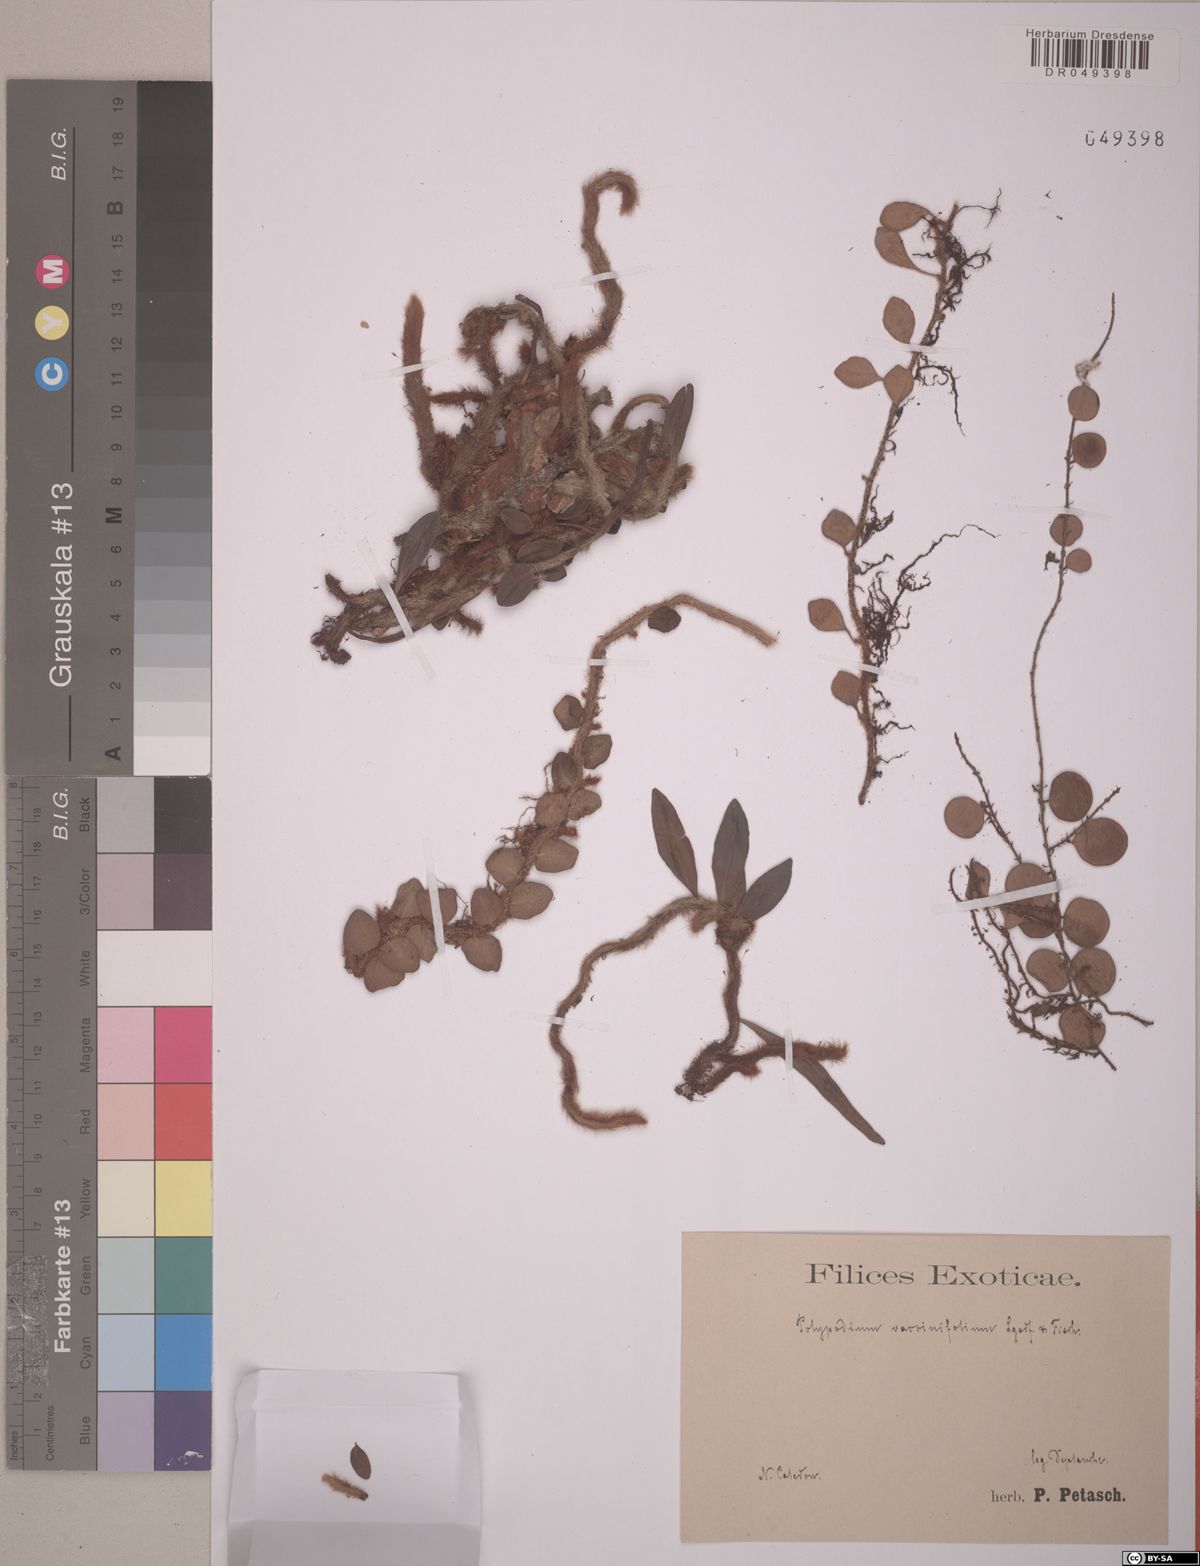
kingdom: Plantae
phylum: Tracheophyta
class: Polypodiopsida
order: Polypodiales
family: Polypodiaceae
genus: Microgramma
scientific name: Microgramma vaccinifolia
